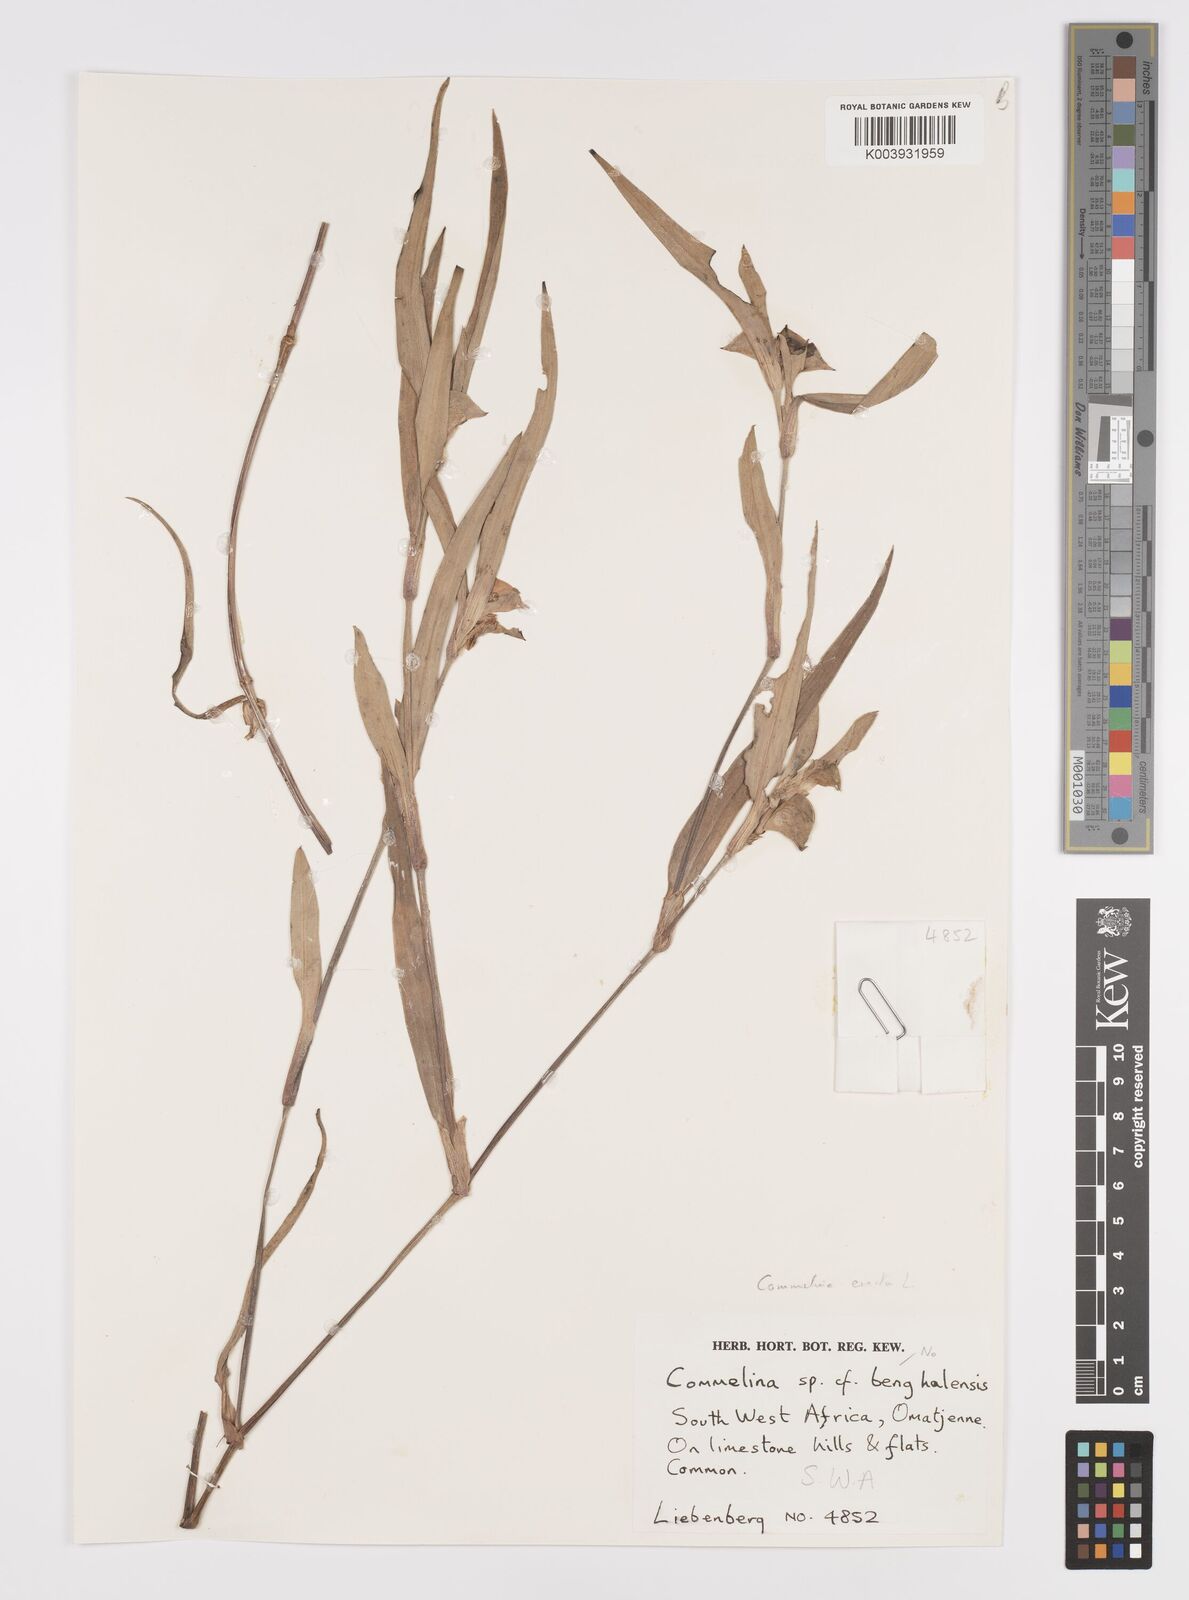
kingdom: Plantae
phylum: Tracheophyta
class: Liliopsida
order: Commelinales
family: Commelinaceae
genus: Commelina
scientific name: Commelina erecta
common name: Blousel blommetjie
